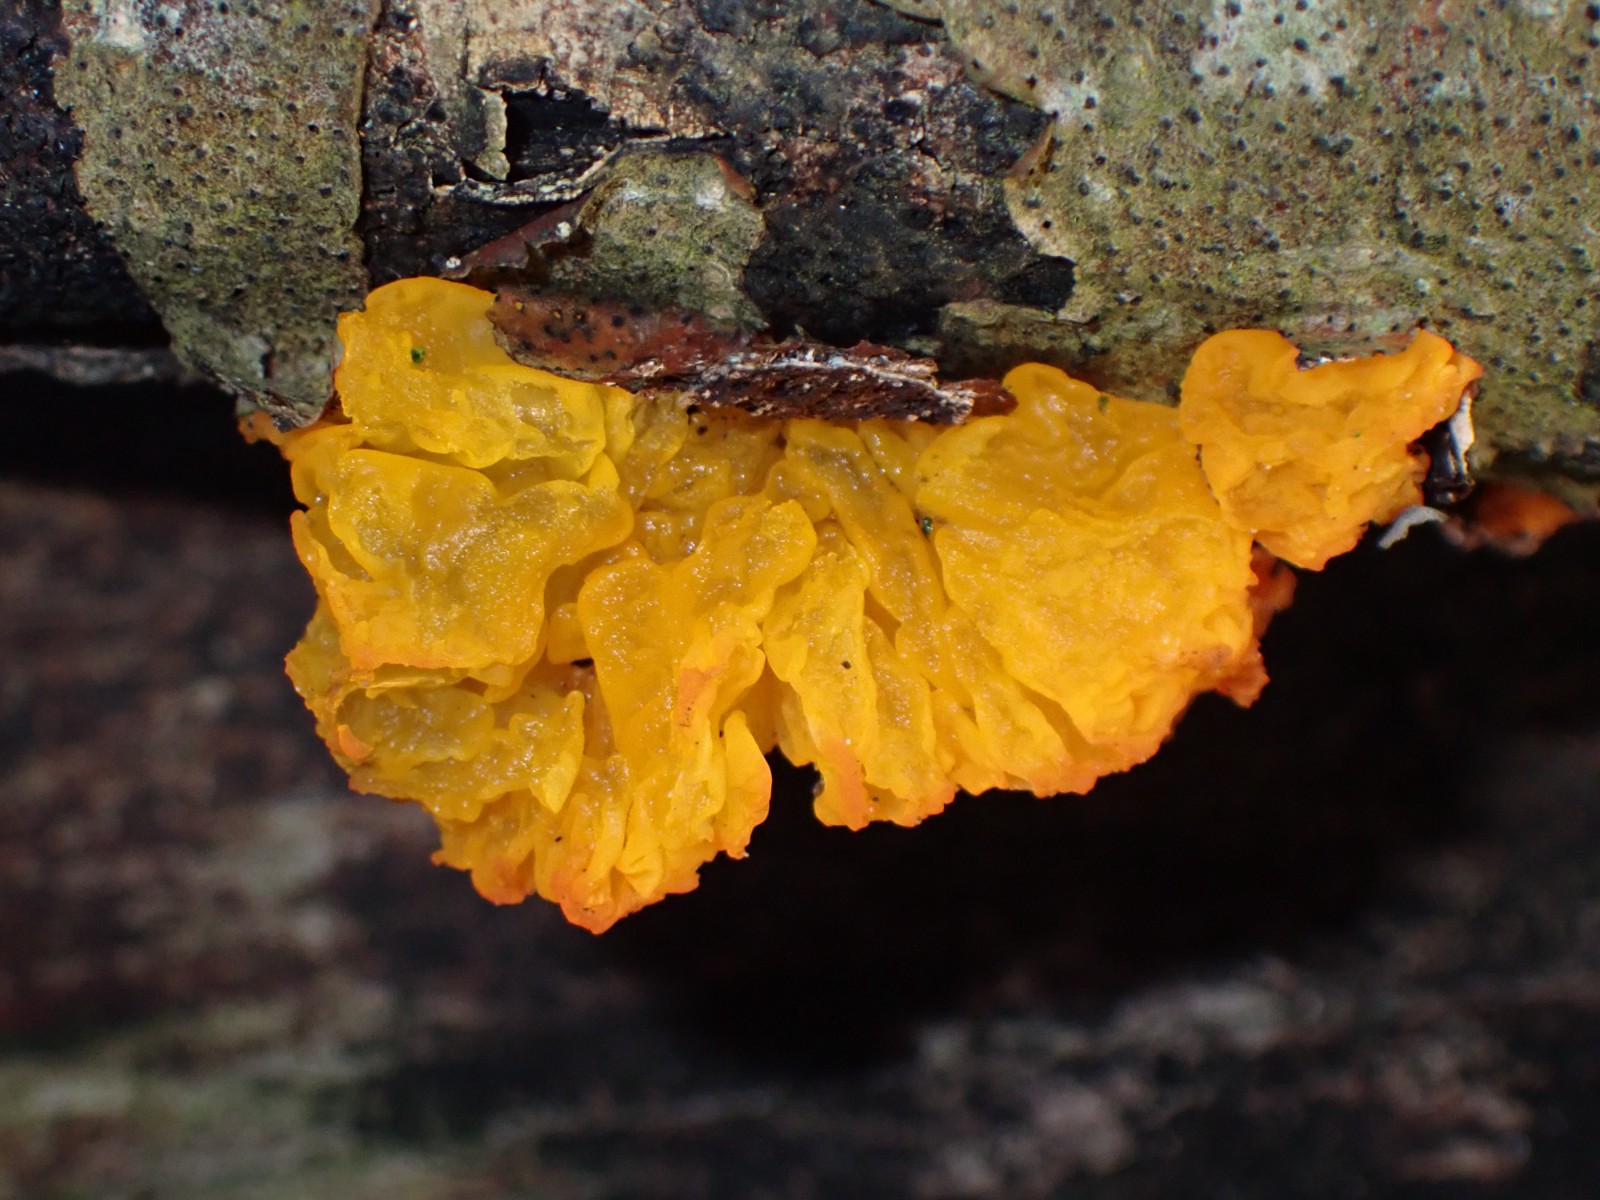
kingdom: Fungi
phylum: Basidiomycota
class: Tremellomycetes
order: Tremellales
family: Tremellaceae
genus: Tremella
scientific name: Tremella mesenterica
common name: gul bævresvamp
